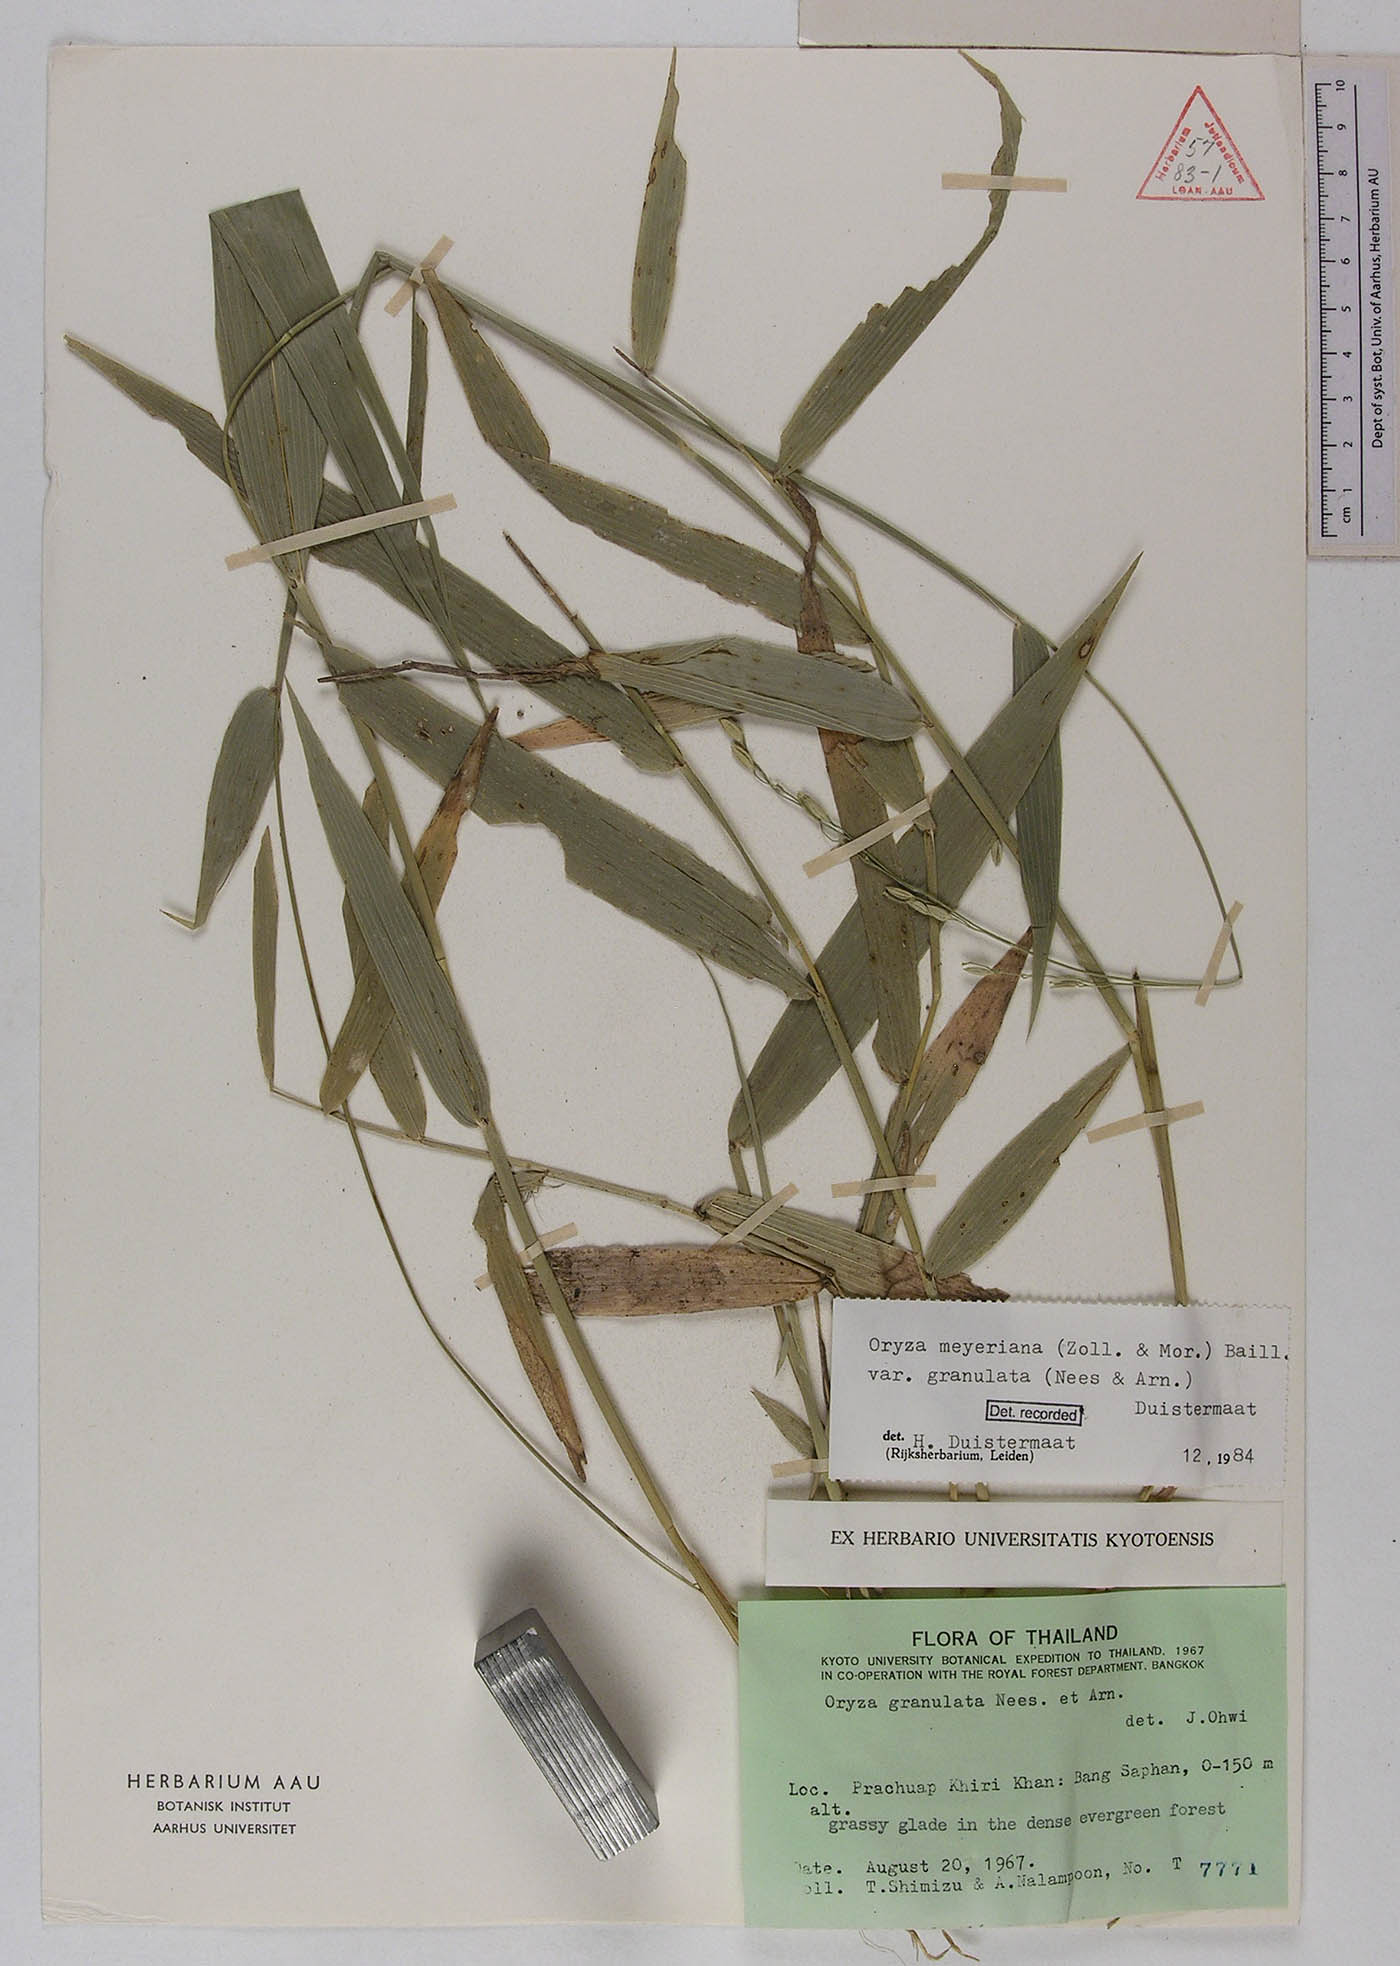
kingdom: Plantae
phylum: Tracheophyta
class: Liliopsida
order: Poales
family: Poaceae
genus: Oryza
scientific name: Oryza meyeriana
